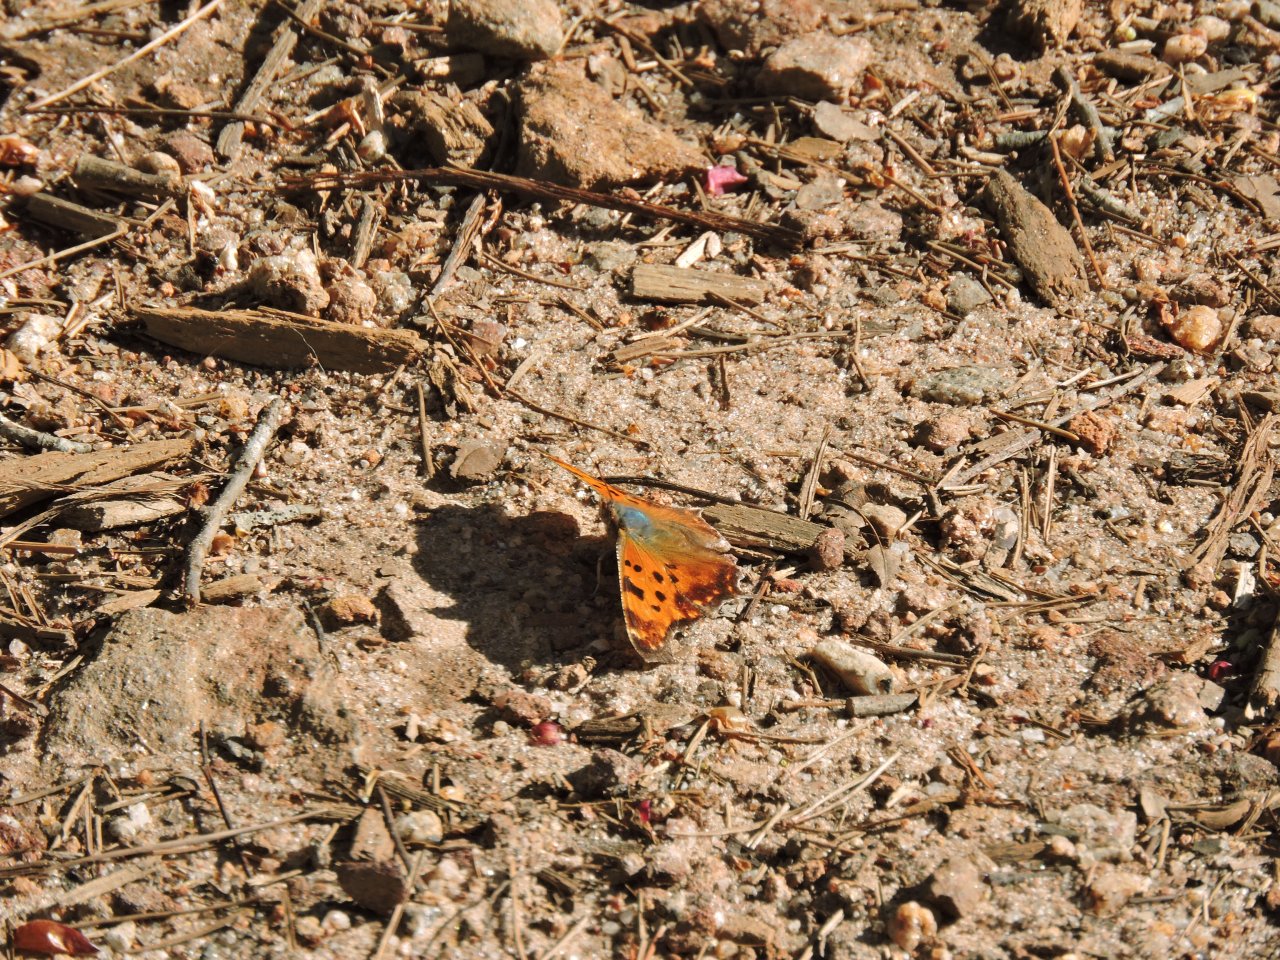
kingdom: Animalia
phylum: Arthropoda
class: Insecta
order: Lepidoptera
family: Nymphalidae
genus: Polygonia
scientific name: Polygonia comma
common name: Eastern Comma
